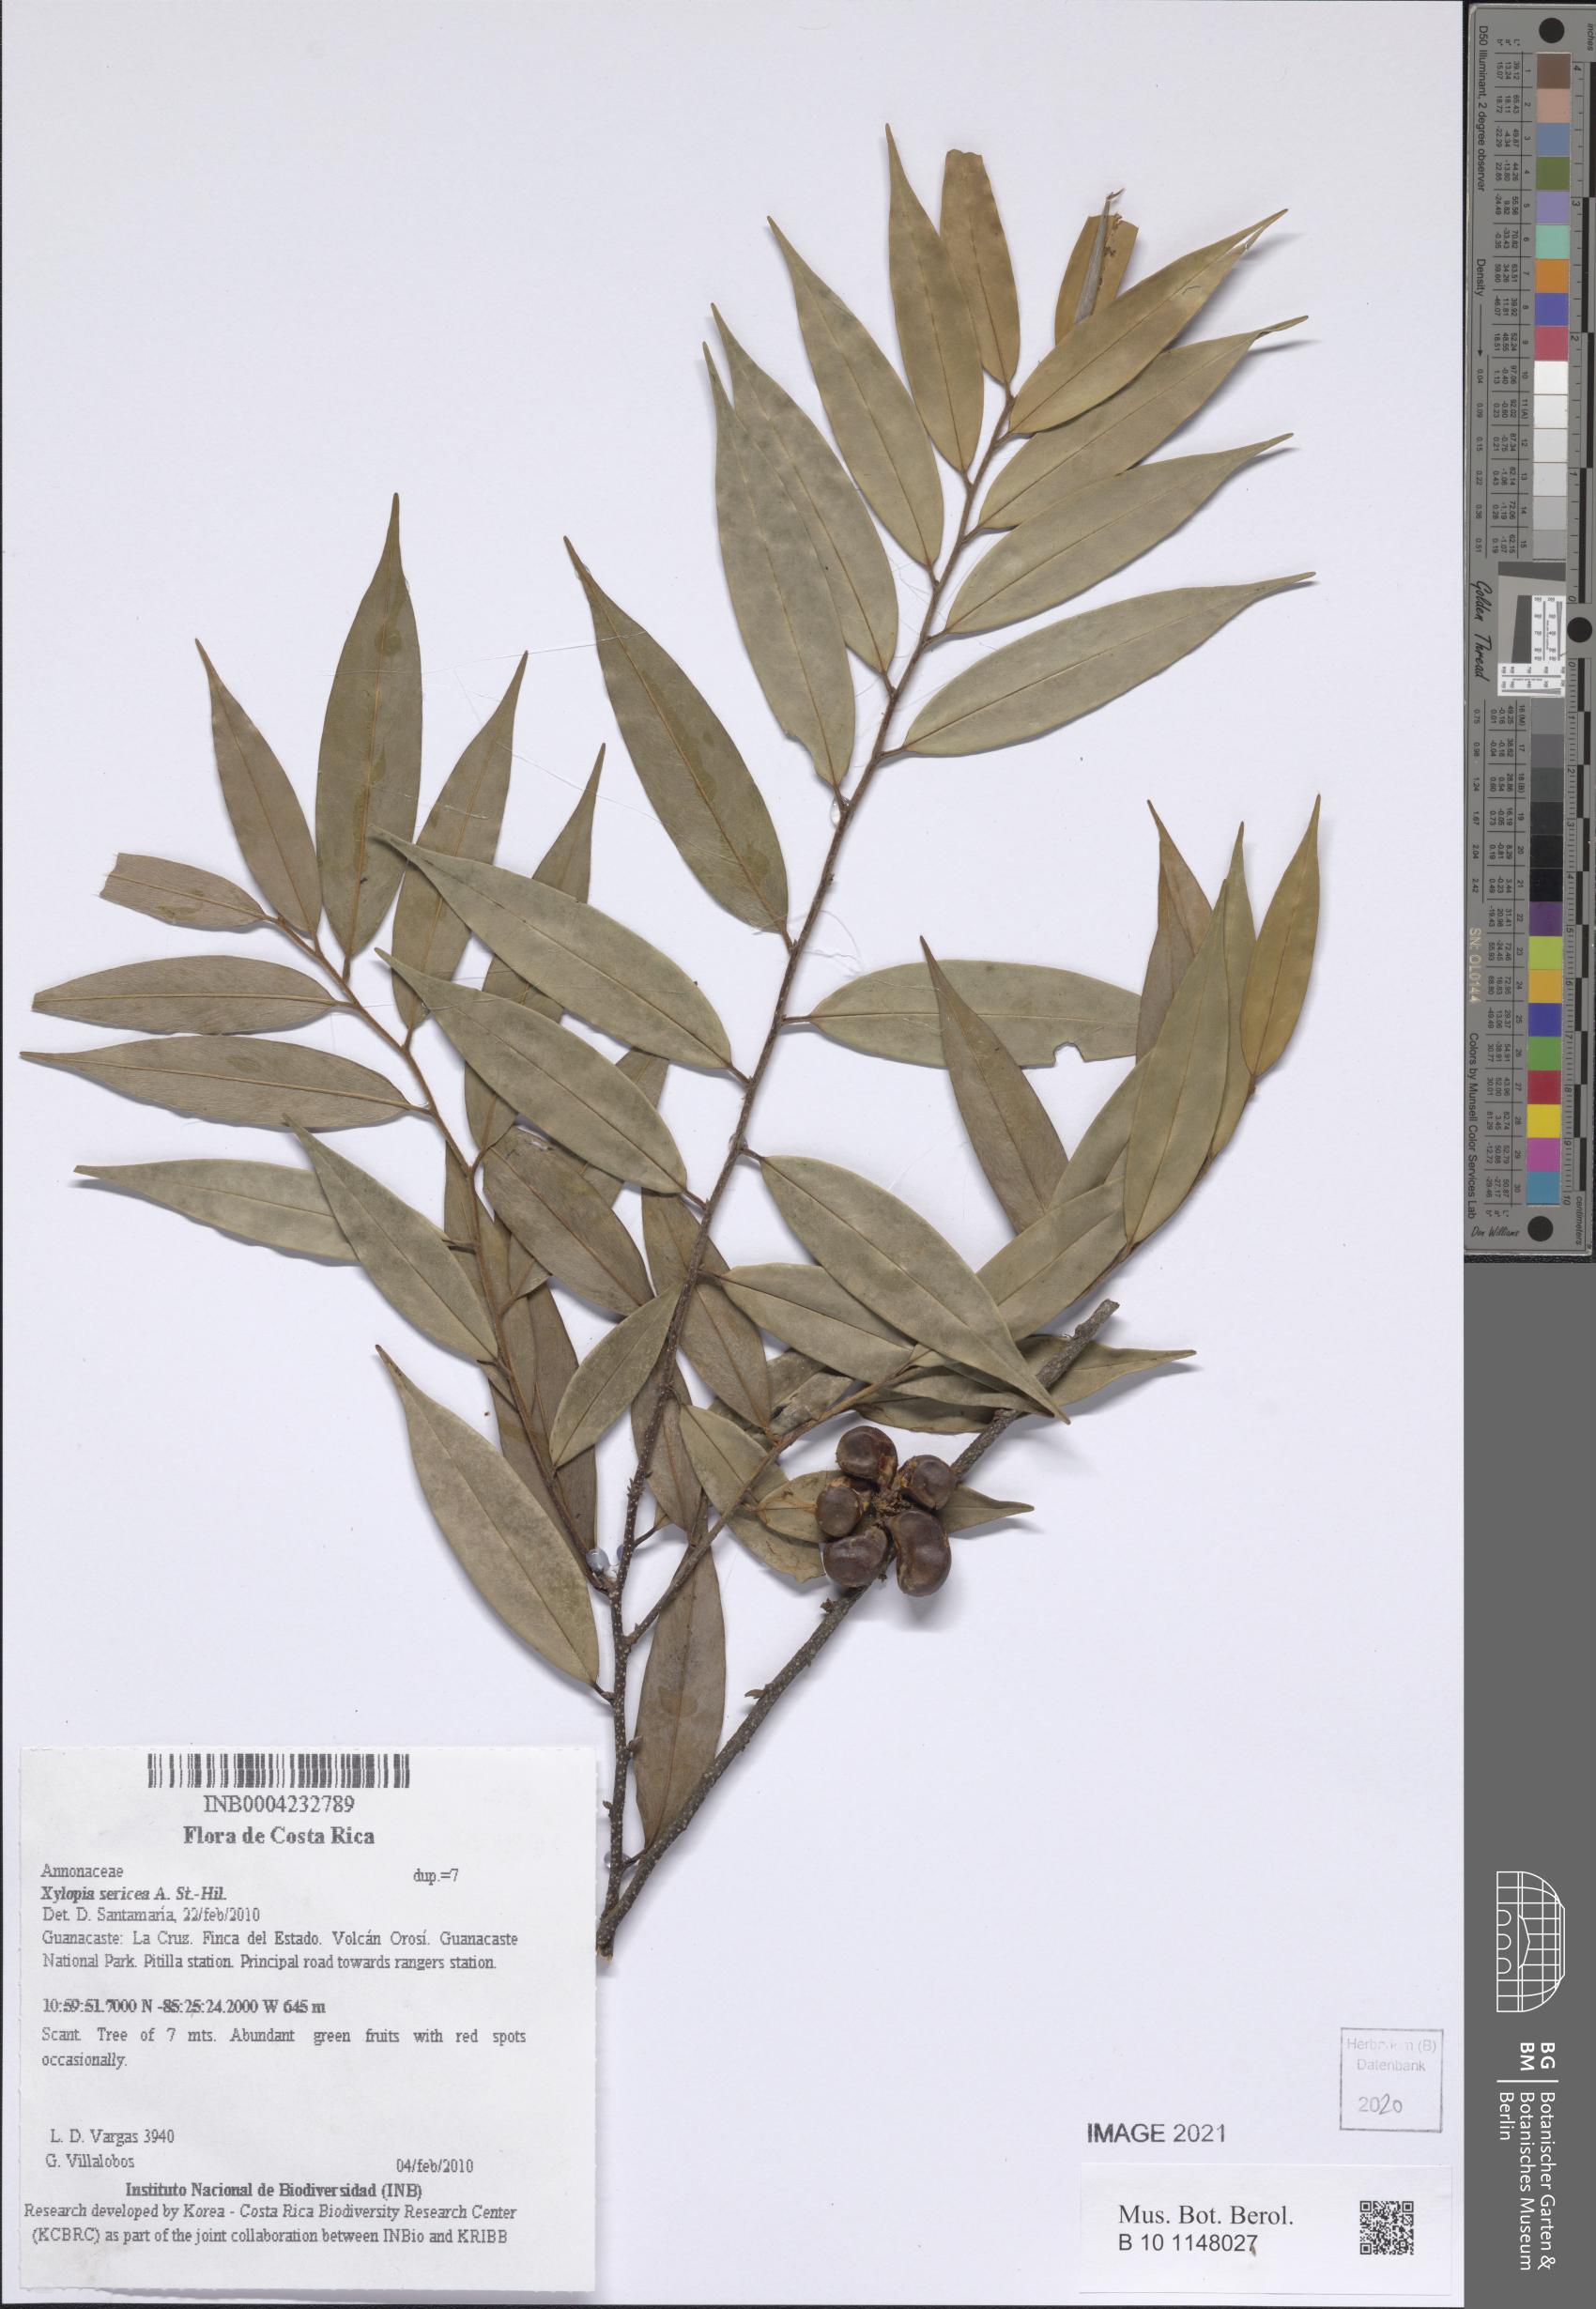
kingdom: Plantae
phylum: Tracheophyta
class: Magnoliopsida
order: Magnoliales
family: Annonaceae
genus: Xylopia
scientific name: Xylopia sericea
